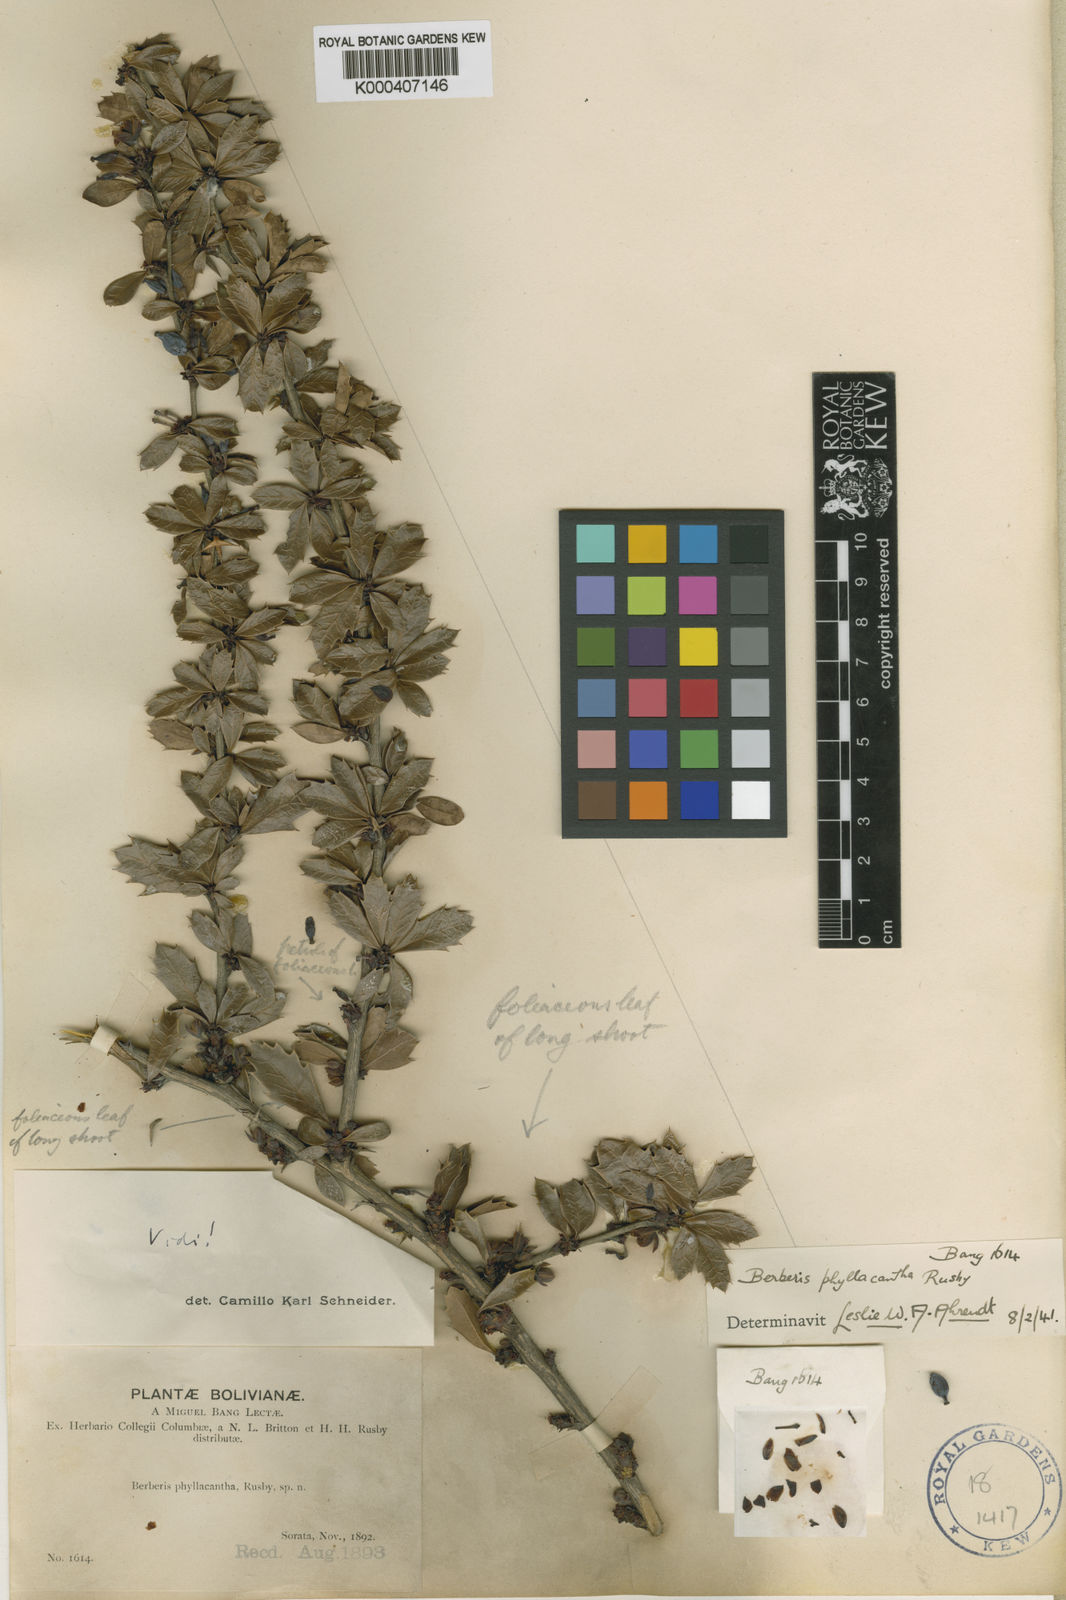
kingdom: Plantae
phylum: Tracheophyta
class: Magnoliopsida
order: Ranunculales
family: Berberidaceae
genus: Berberis
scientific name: Berberis phyllacantha
